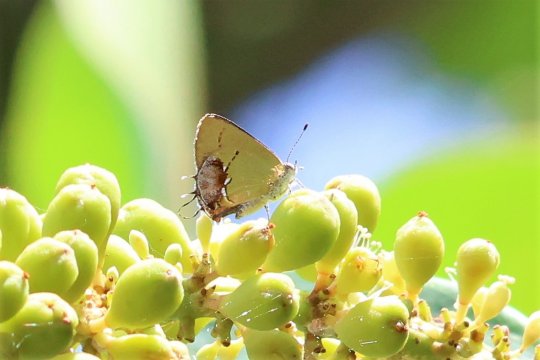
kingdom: Animalia
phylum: Arthropoda
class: Insecta
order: Lepidoptera
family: Lycaenidae
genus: Thecla
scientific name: Thecla maesites
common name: Amethyst Hairstreak
